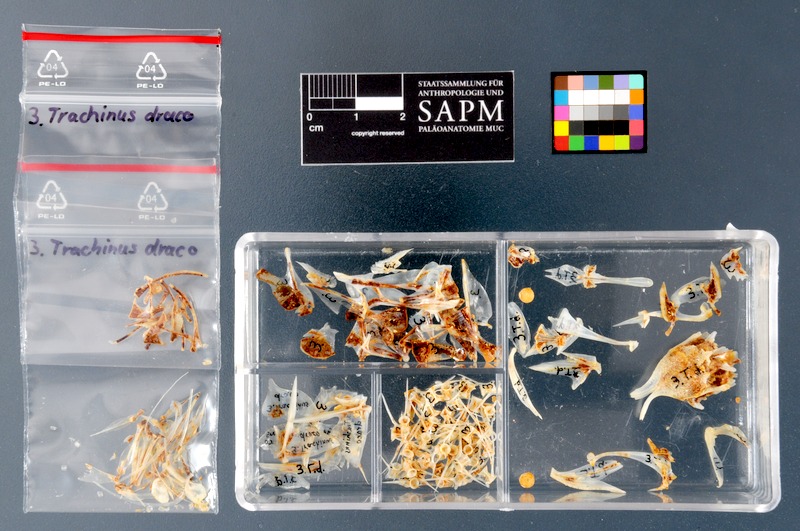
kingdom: Animalia
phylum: Chordata
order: Perciformes
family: Trachinidae
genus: Trachinus
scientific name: Trachinus draco
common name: Greater weever
